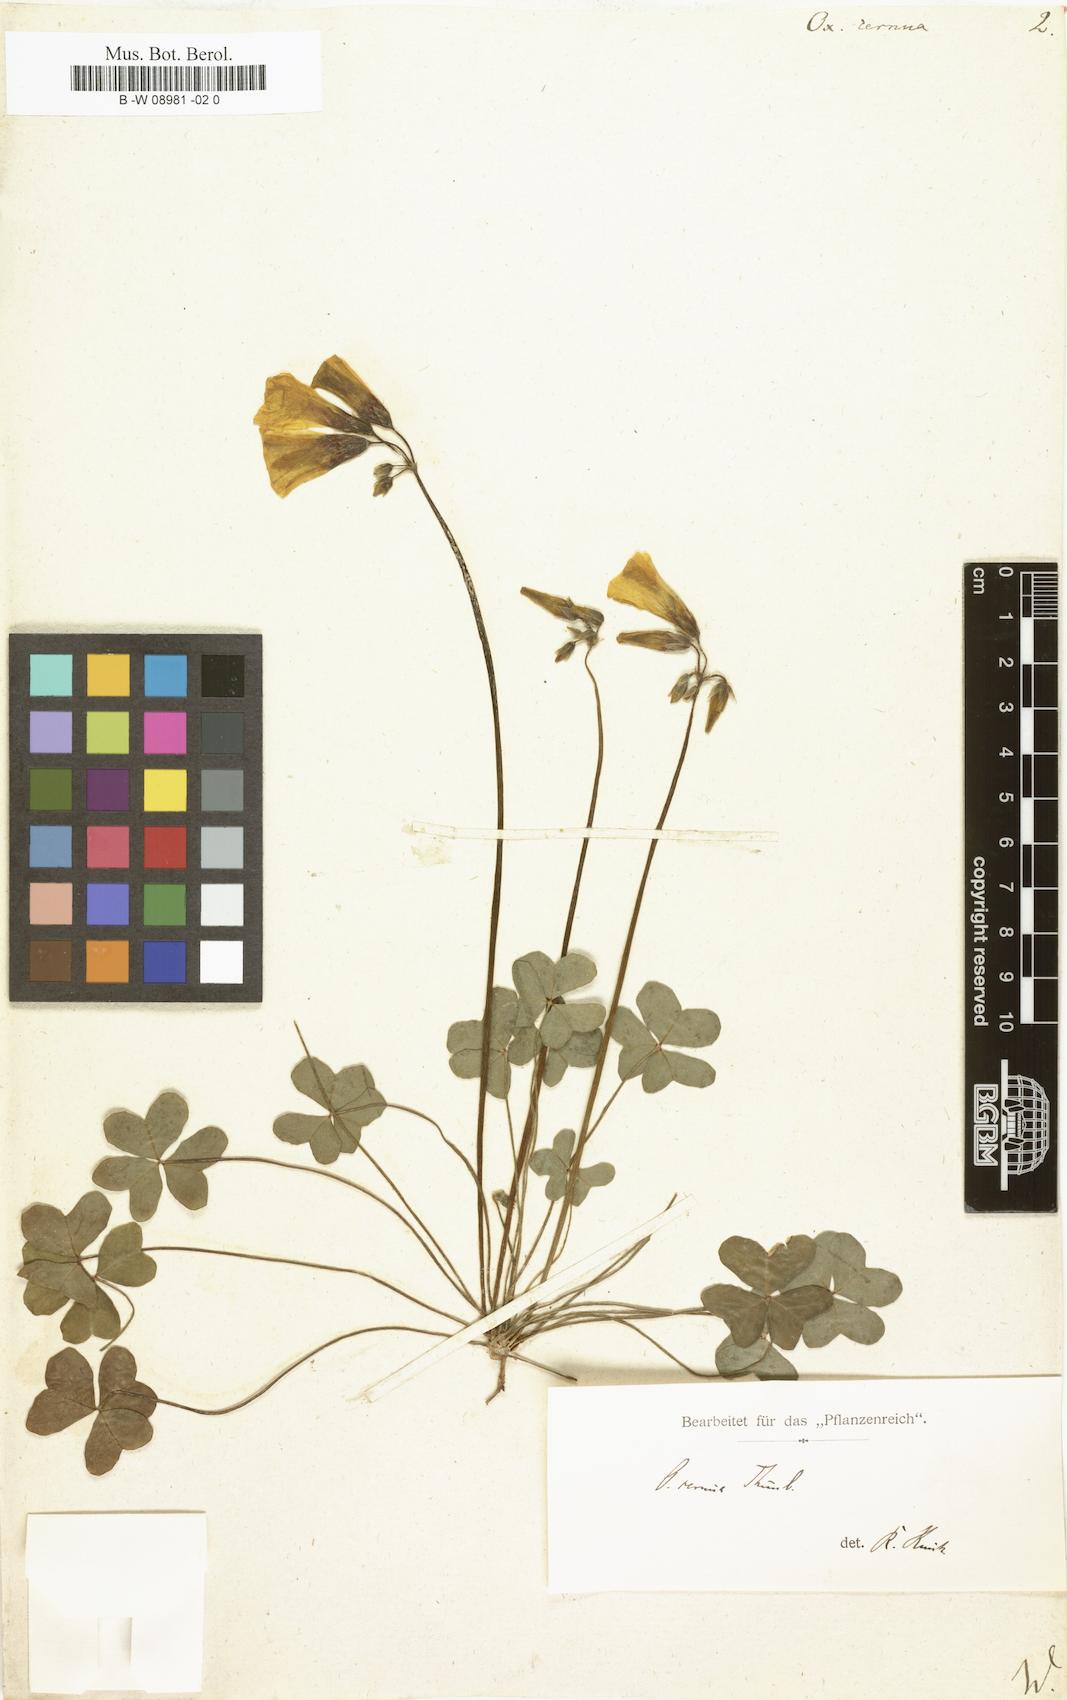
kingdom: Plantae
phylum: Tracheophyta
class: Magnoliopsida
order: Oxalidales
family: Oxalidaceae
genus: Oxalis
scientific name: Oxalis pes-caprae
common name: Bermuda-buttercup
